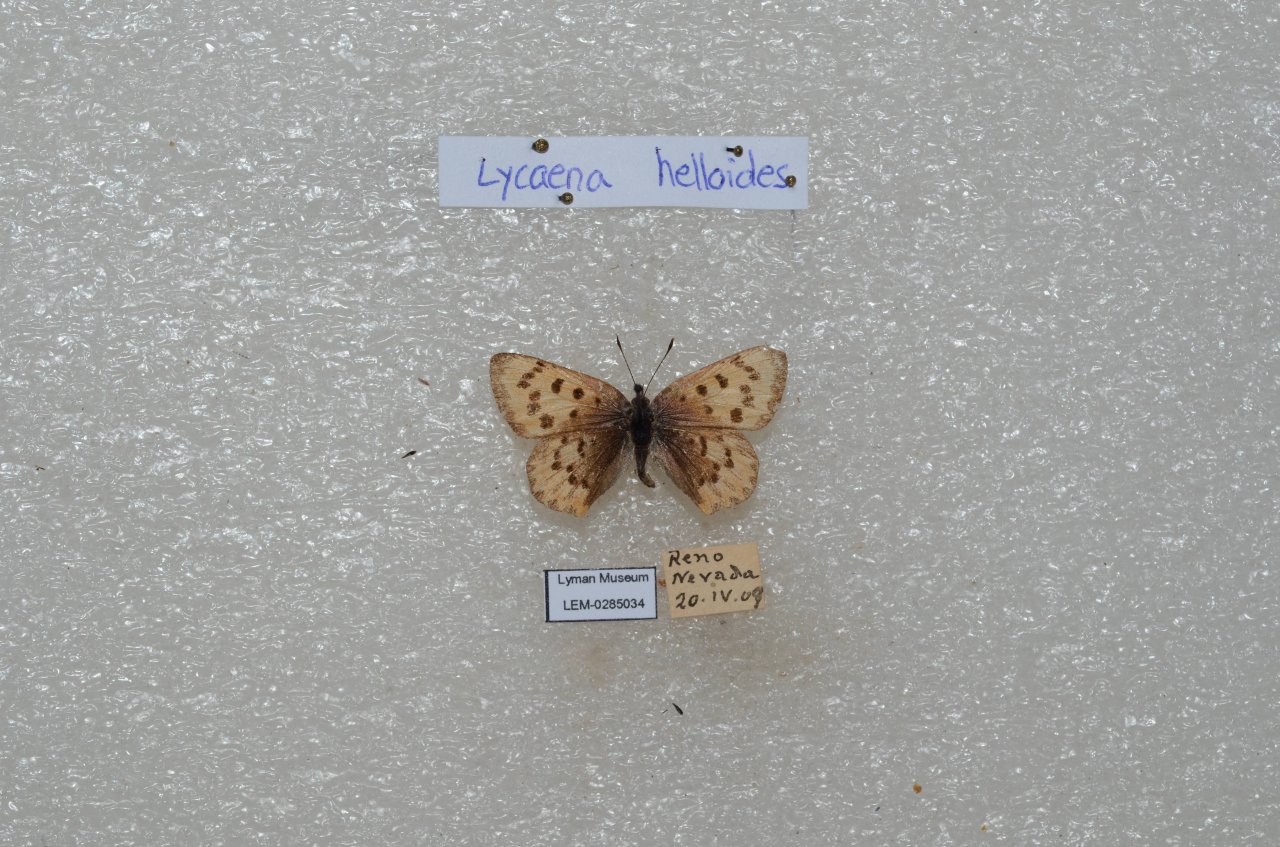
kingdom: Animalia
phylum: Arthropoda
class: Insecta
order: Lepidoptera
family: Sesiidae
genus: Sesia
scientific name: Sesia Lycaena helloides
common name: Purplish Copper
